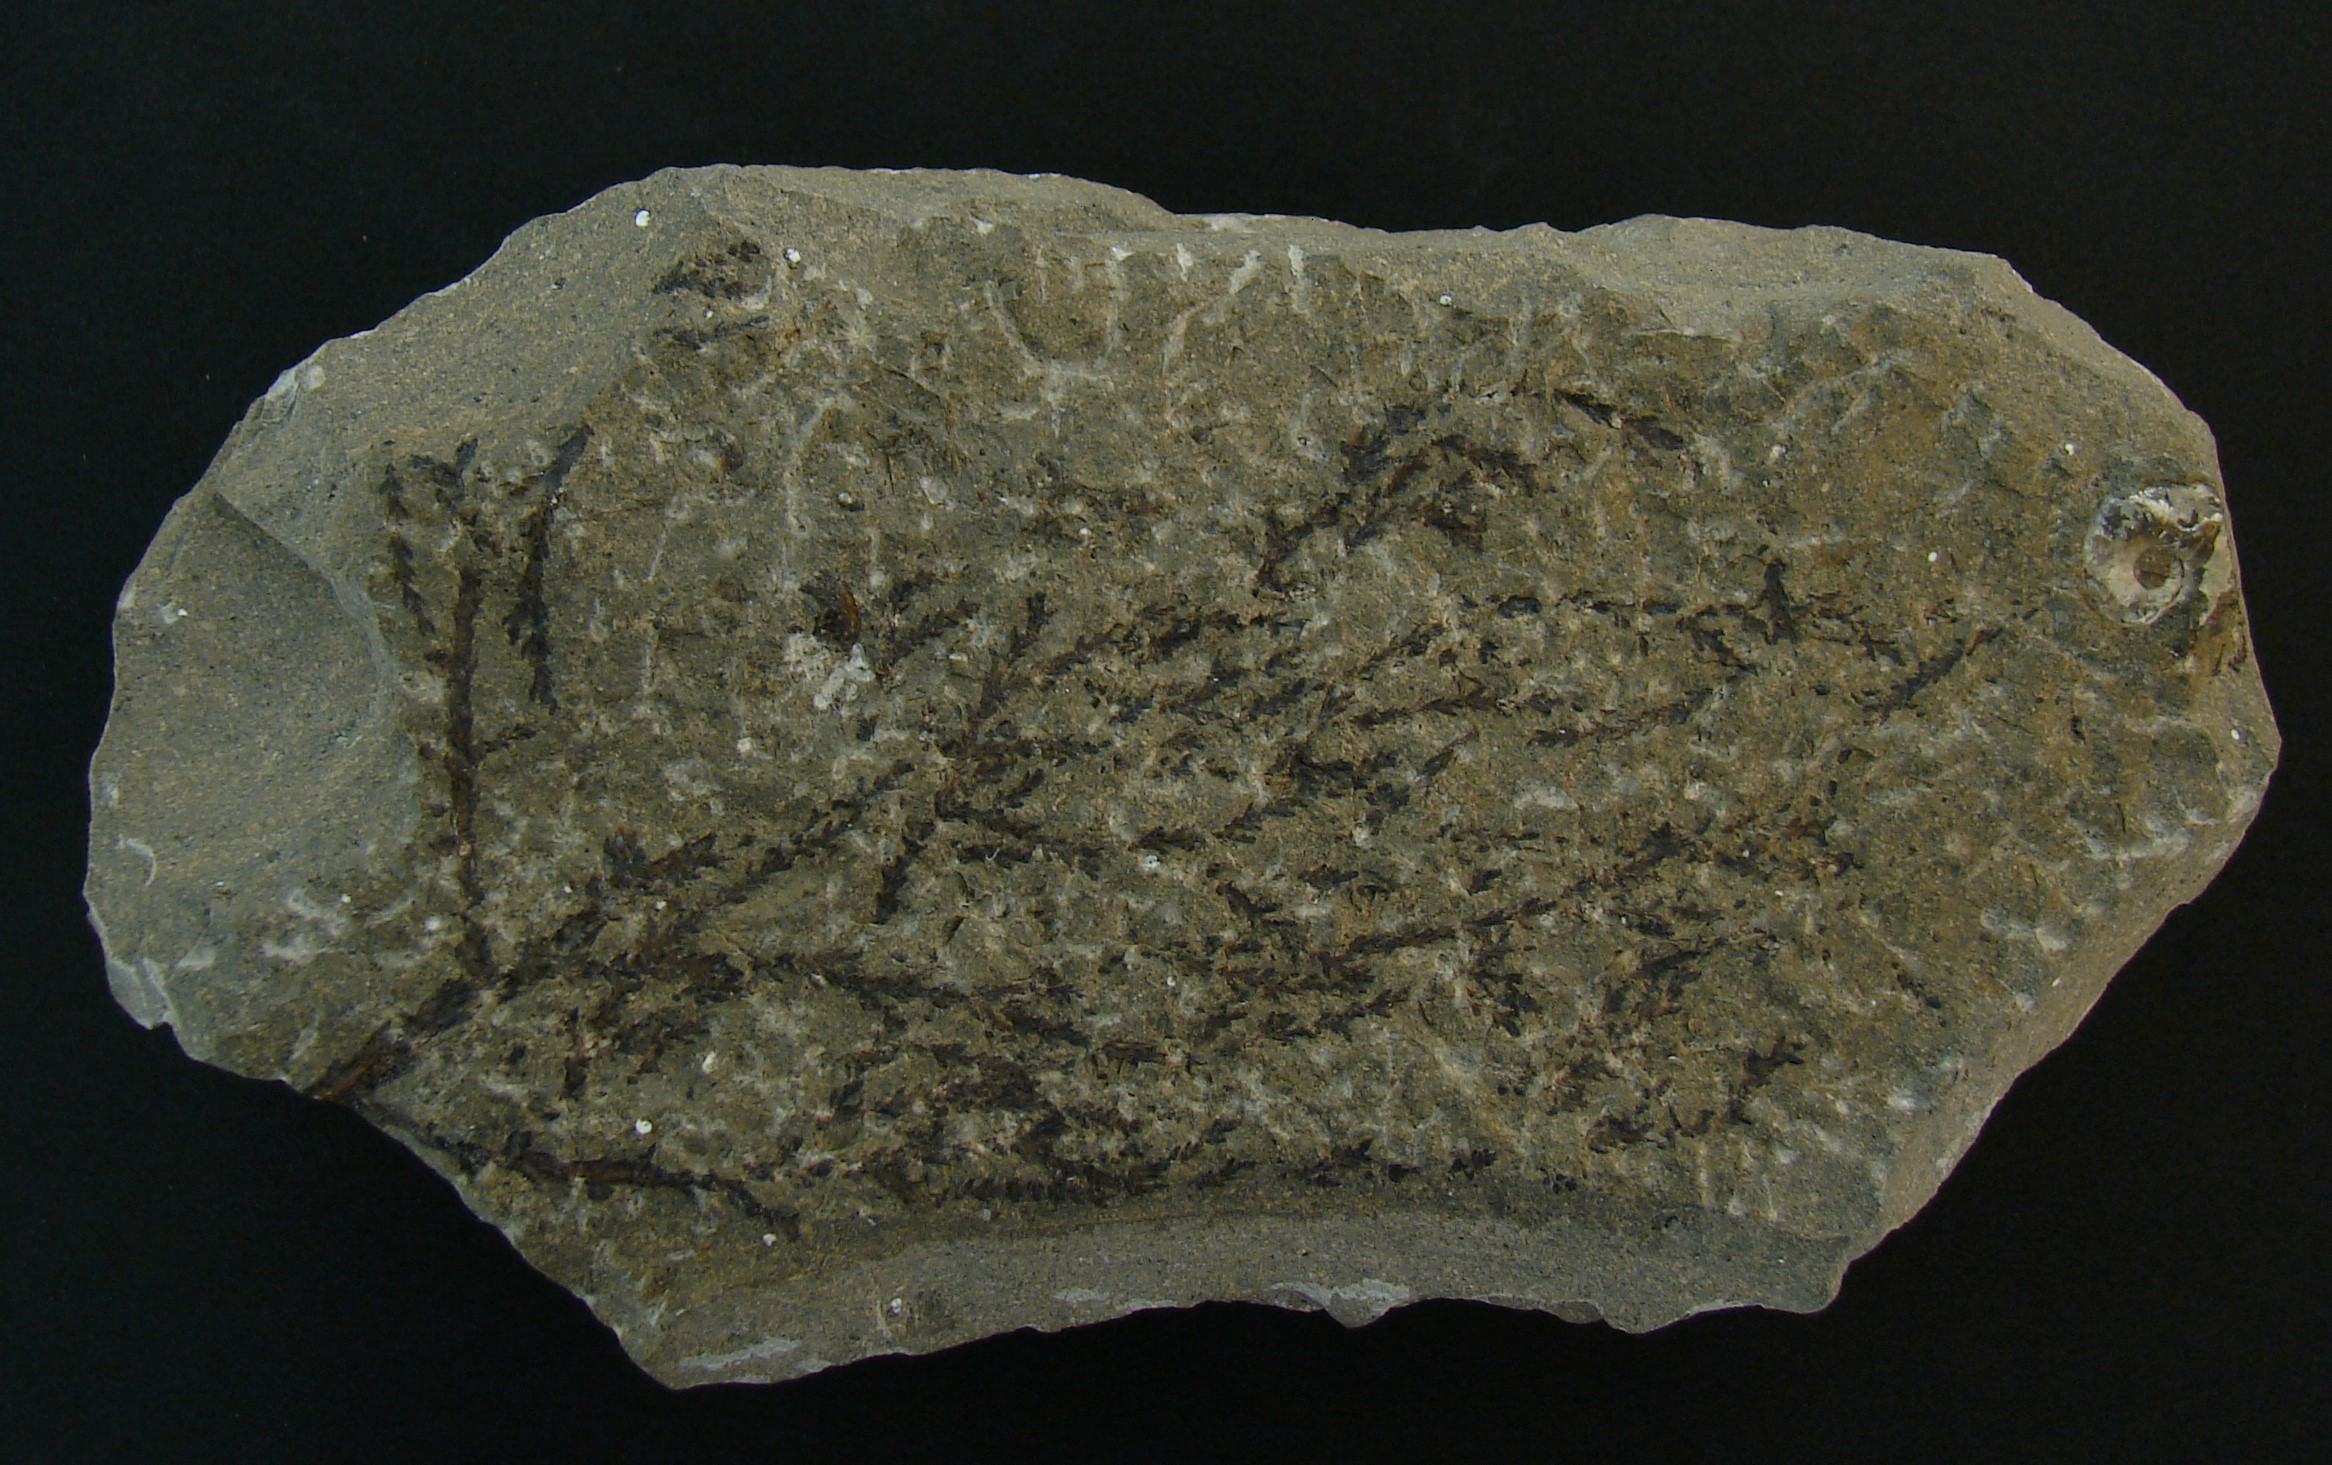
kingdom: Plantae
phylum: Tracheophyta
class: Pinopsida
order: Pinales
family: Cupressaceae
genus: Widdringtonites
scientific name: Widdringtonites
